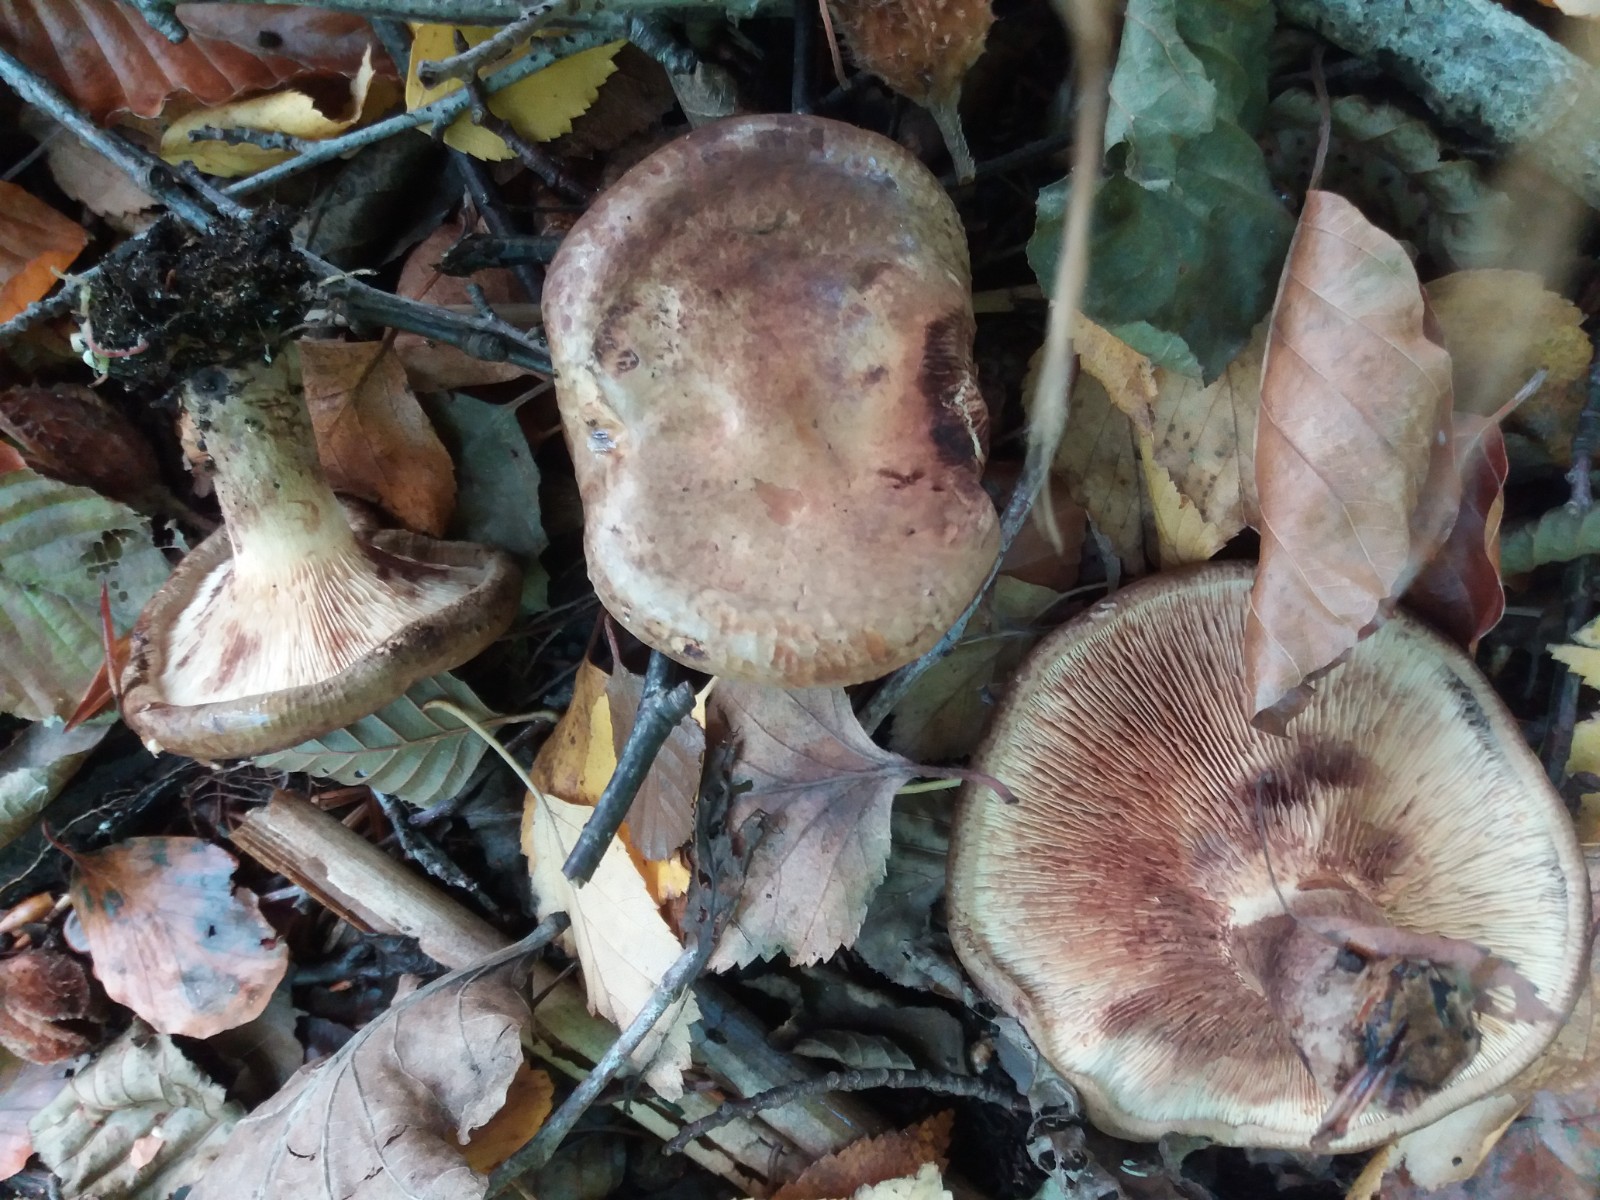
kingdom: Fungi
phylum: Basidiomycota
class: Agaricomycetes
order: Boletales
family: Paxillaceae
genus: Paxillus
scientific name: Paxillus cuprinus
